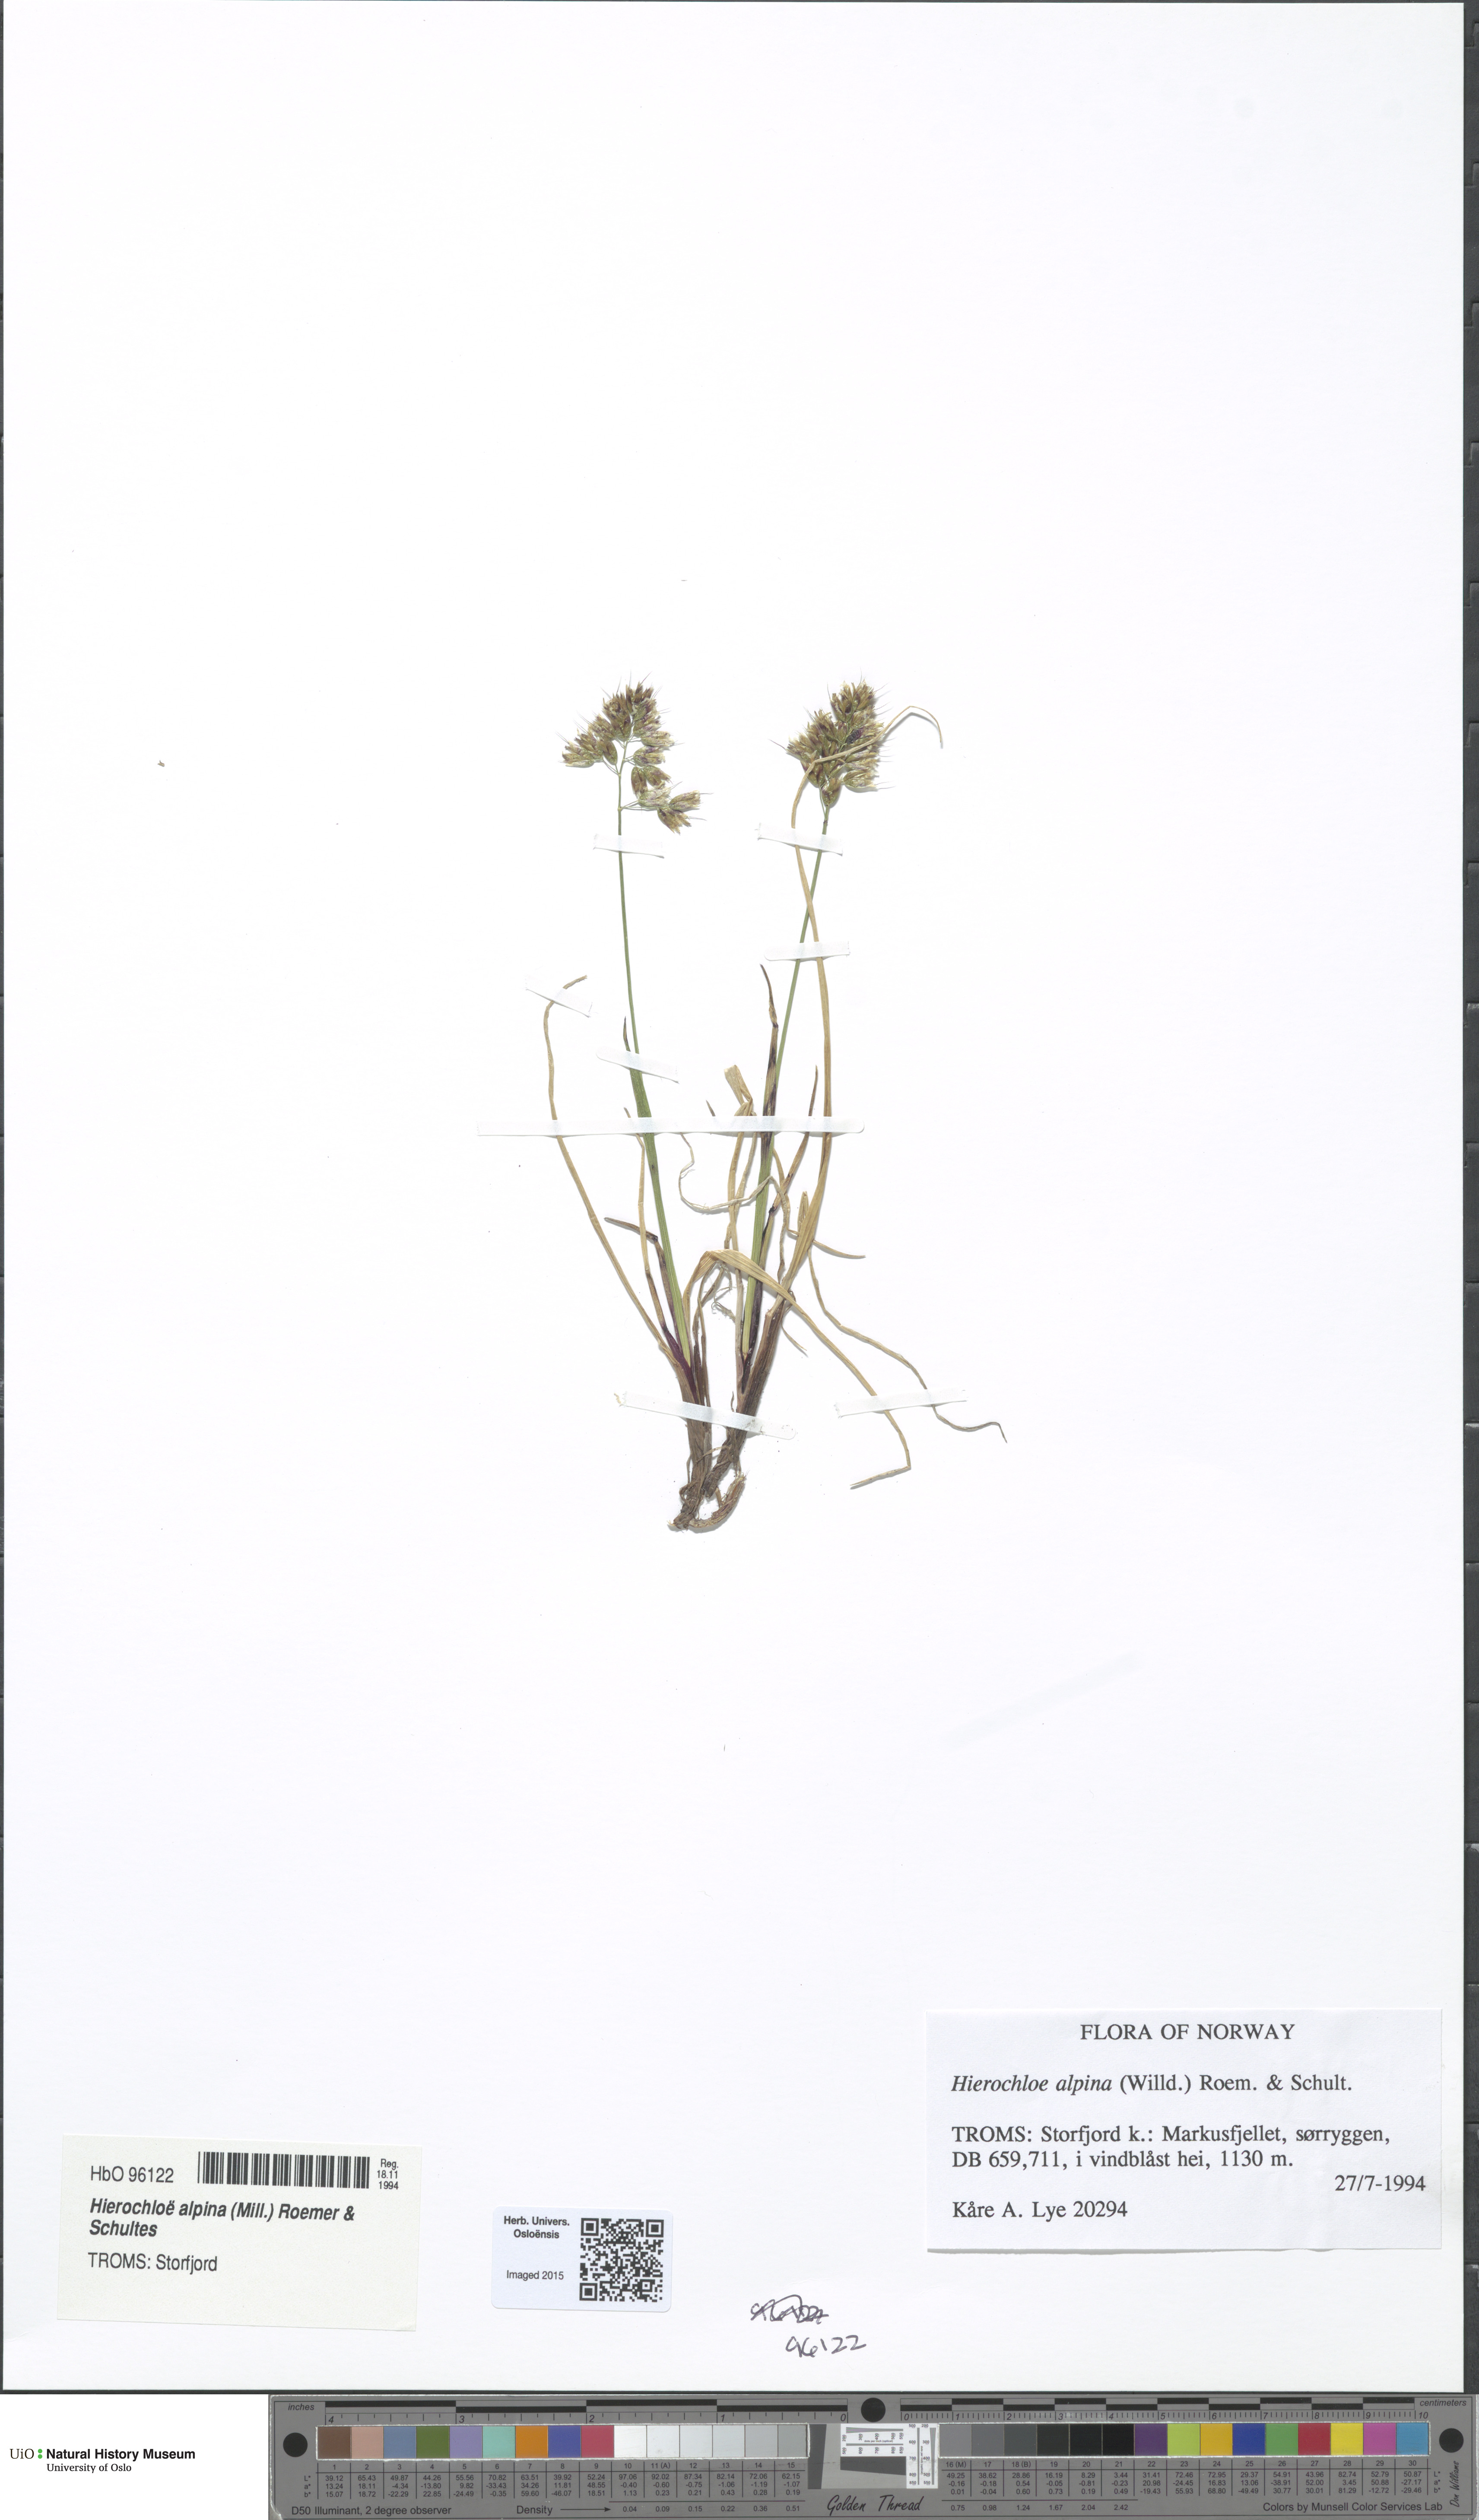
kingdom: Plantae
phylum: Tracheophyta
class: Liliopsida
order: Poales
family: Poaceae
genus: Anthoxanthum
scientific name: Anthoxanthum monticola
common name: Alpine sweetgrass
